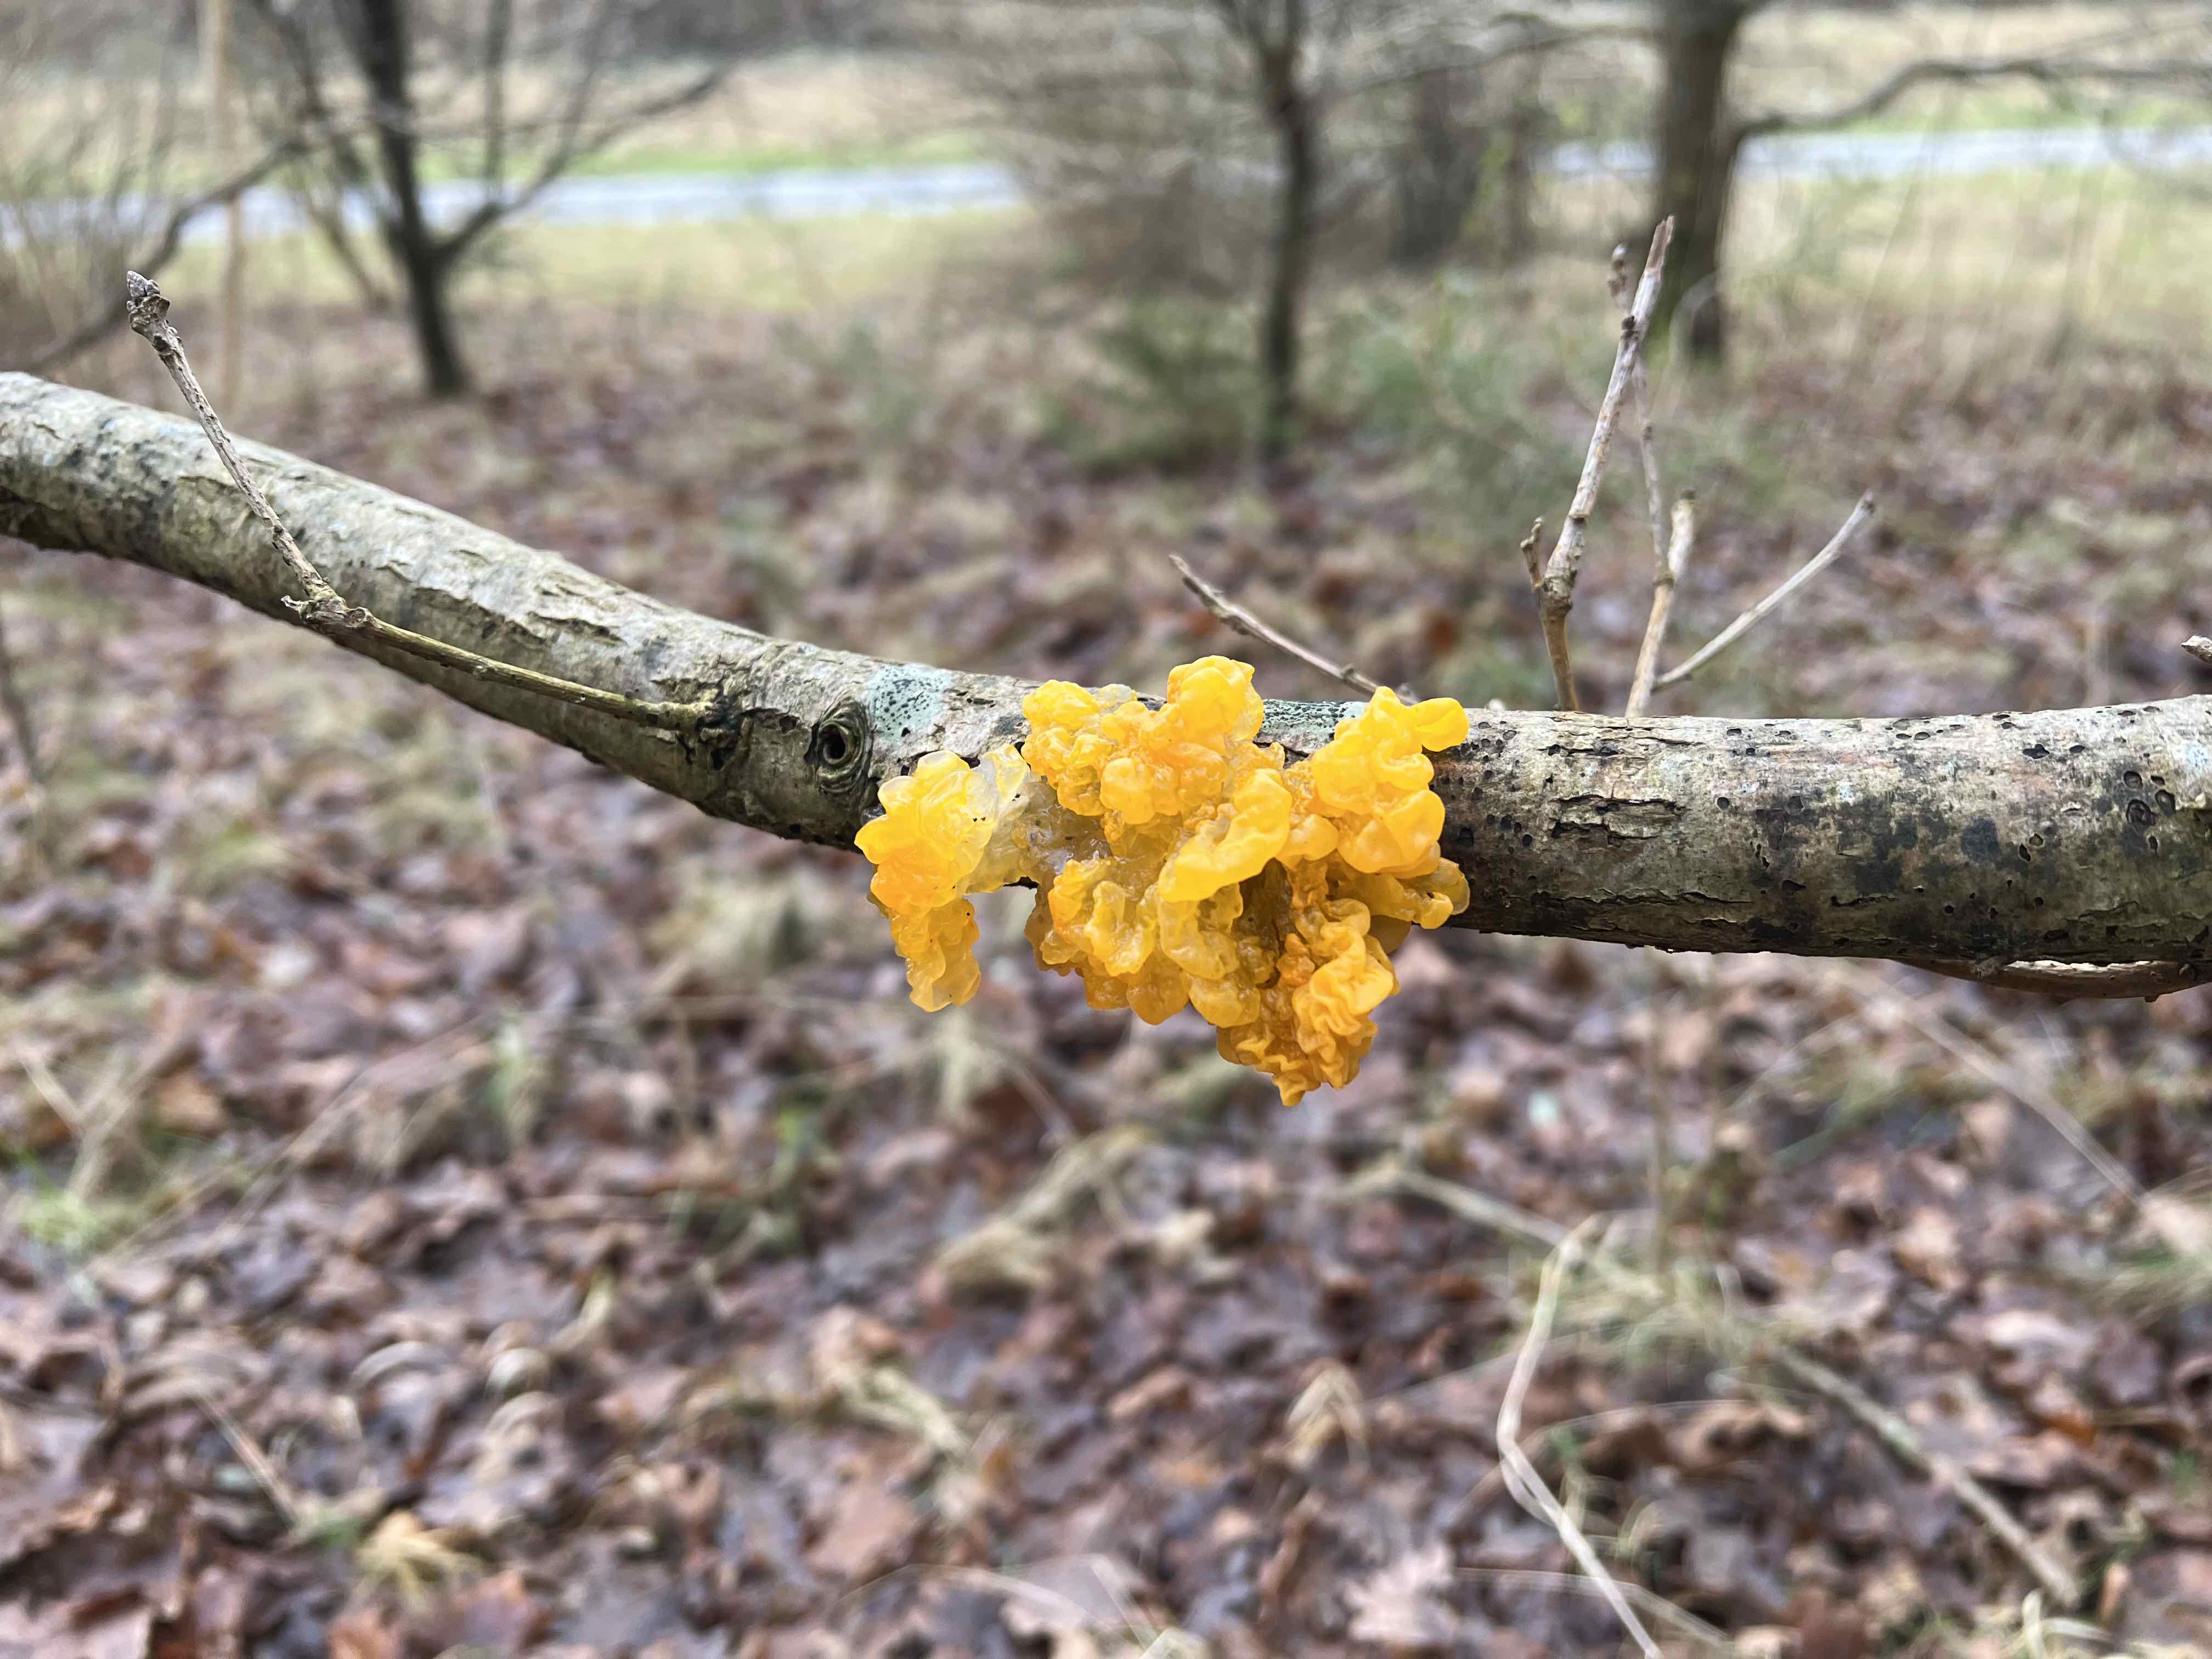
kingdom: Fungi
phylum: Basidiomycota
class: Tremellomycetes
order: Tremellales
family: Tremellaceae
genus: Tremella
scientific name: Tremella mesenterica
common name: gul bævresvamp
